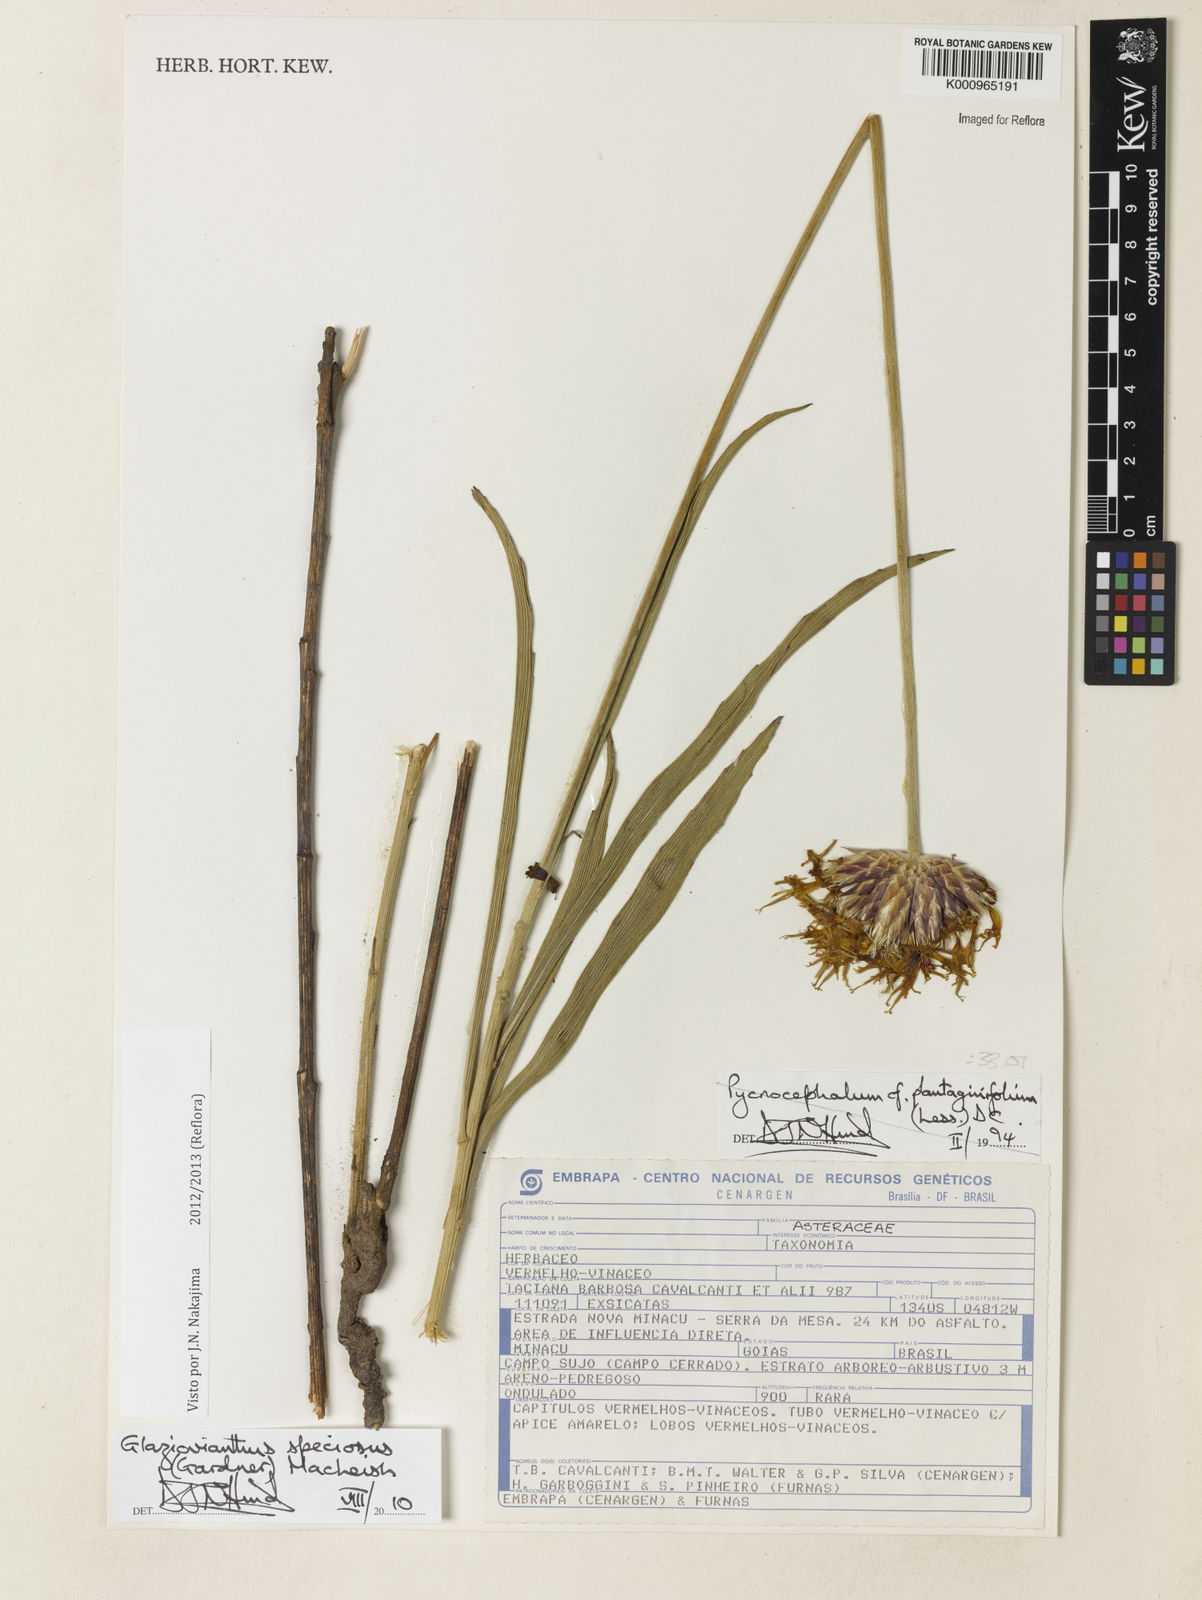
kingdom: Plantae
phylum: Tracheophyta
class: Magnoliopsida
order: Asterales
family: Asteraceae
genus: Chresta
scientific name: Chresta speciosa
